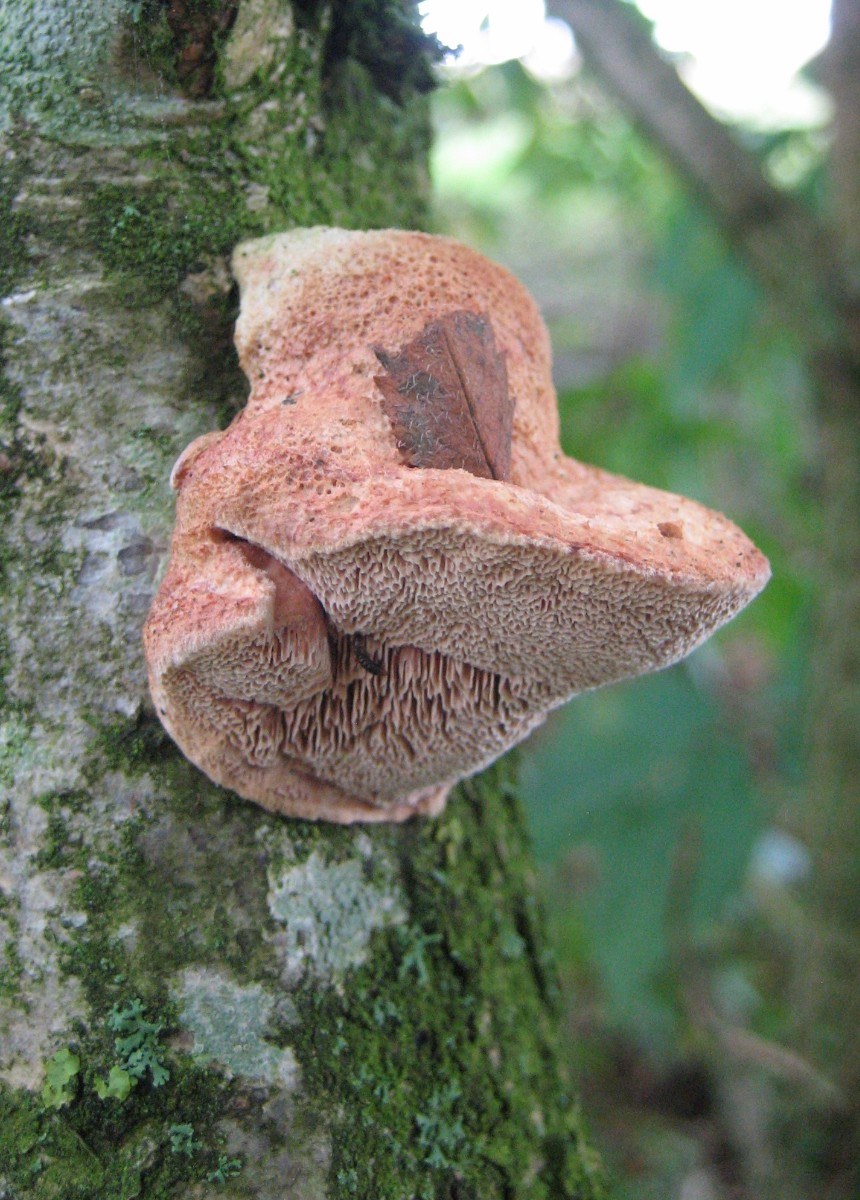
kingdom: Fungi
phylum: Basidiomycota
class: Agaricomycetes
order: Polyporales
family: Phanerochaetaceae
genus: Hapalopilus
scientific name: Hapalopilus rutilans
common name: rødlig okkerporesvamp
